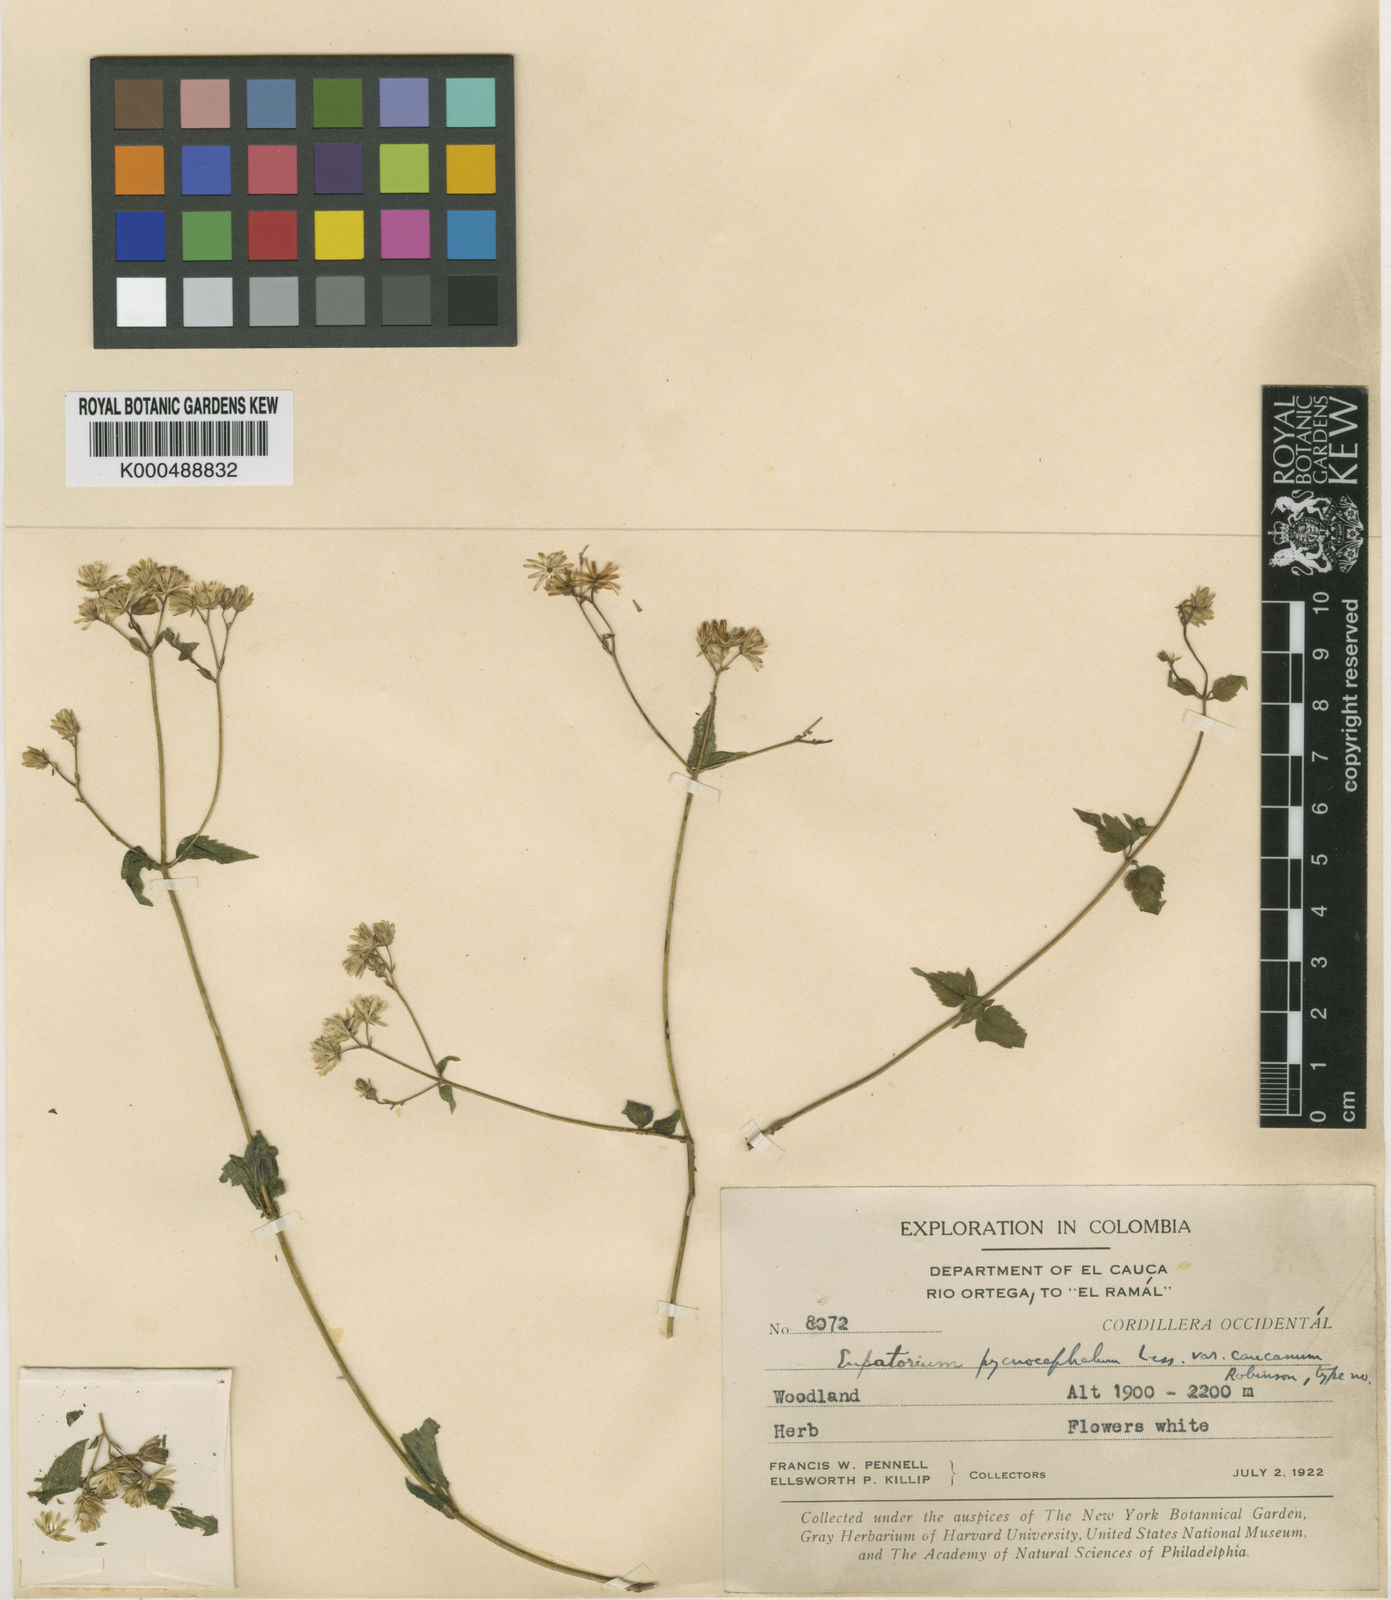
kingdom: Plantae
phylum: Tracheophyta
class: Magnoliopsida
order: Asterales
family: Asteraceae
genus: Fleischmannia
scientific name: Fleischmannia pycnocephala
